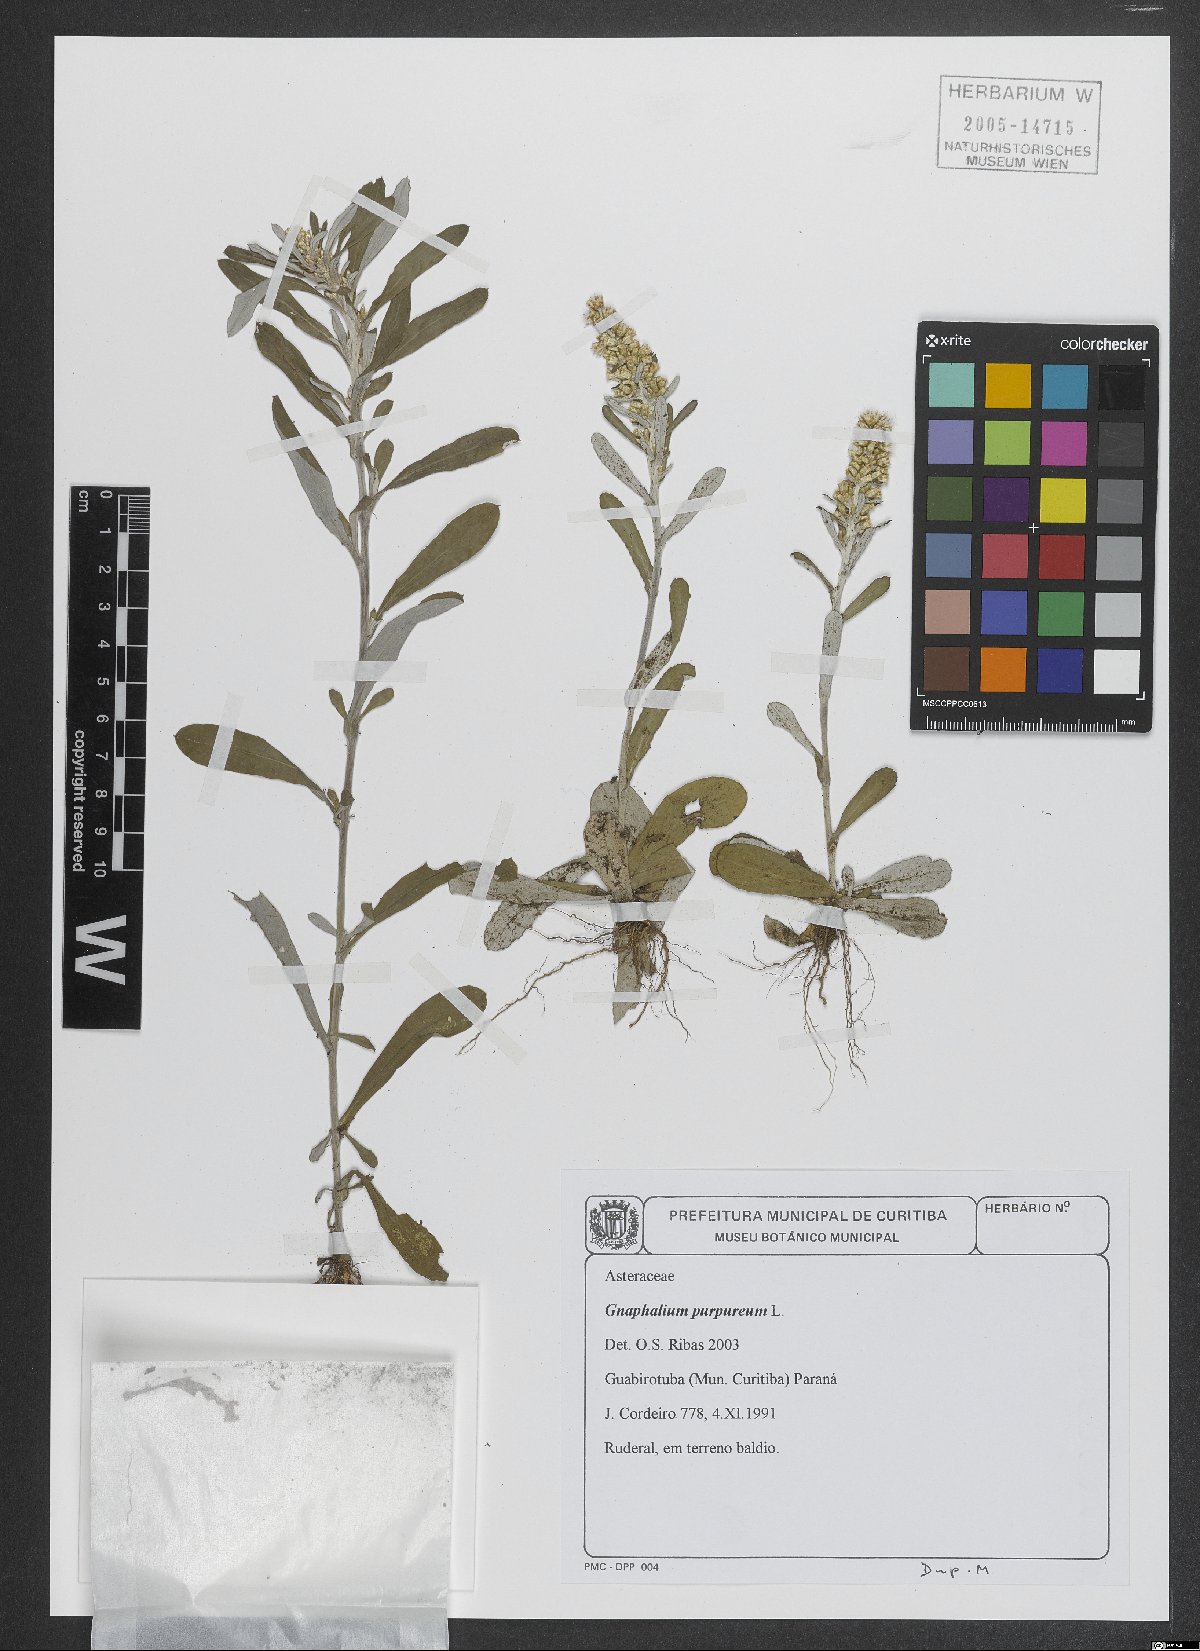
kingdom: Plantae
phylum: Tracheophyta
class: Magnoliopsida
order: Asterales
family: Asteraceae
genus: Gamochaeta
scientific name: Gamochaeta purpurea
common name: Purple cudweed
